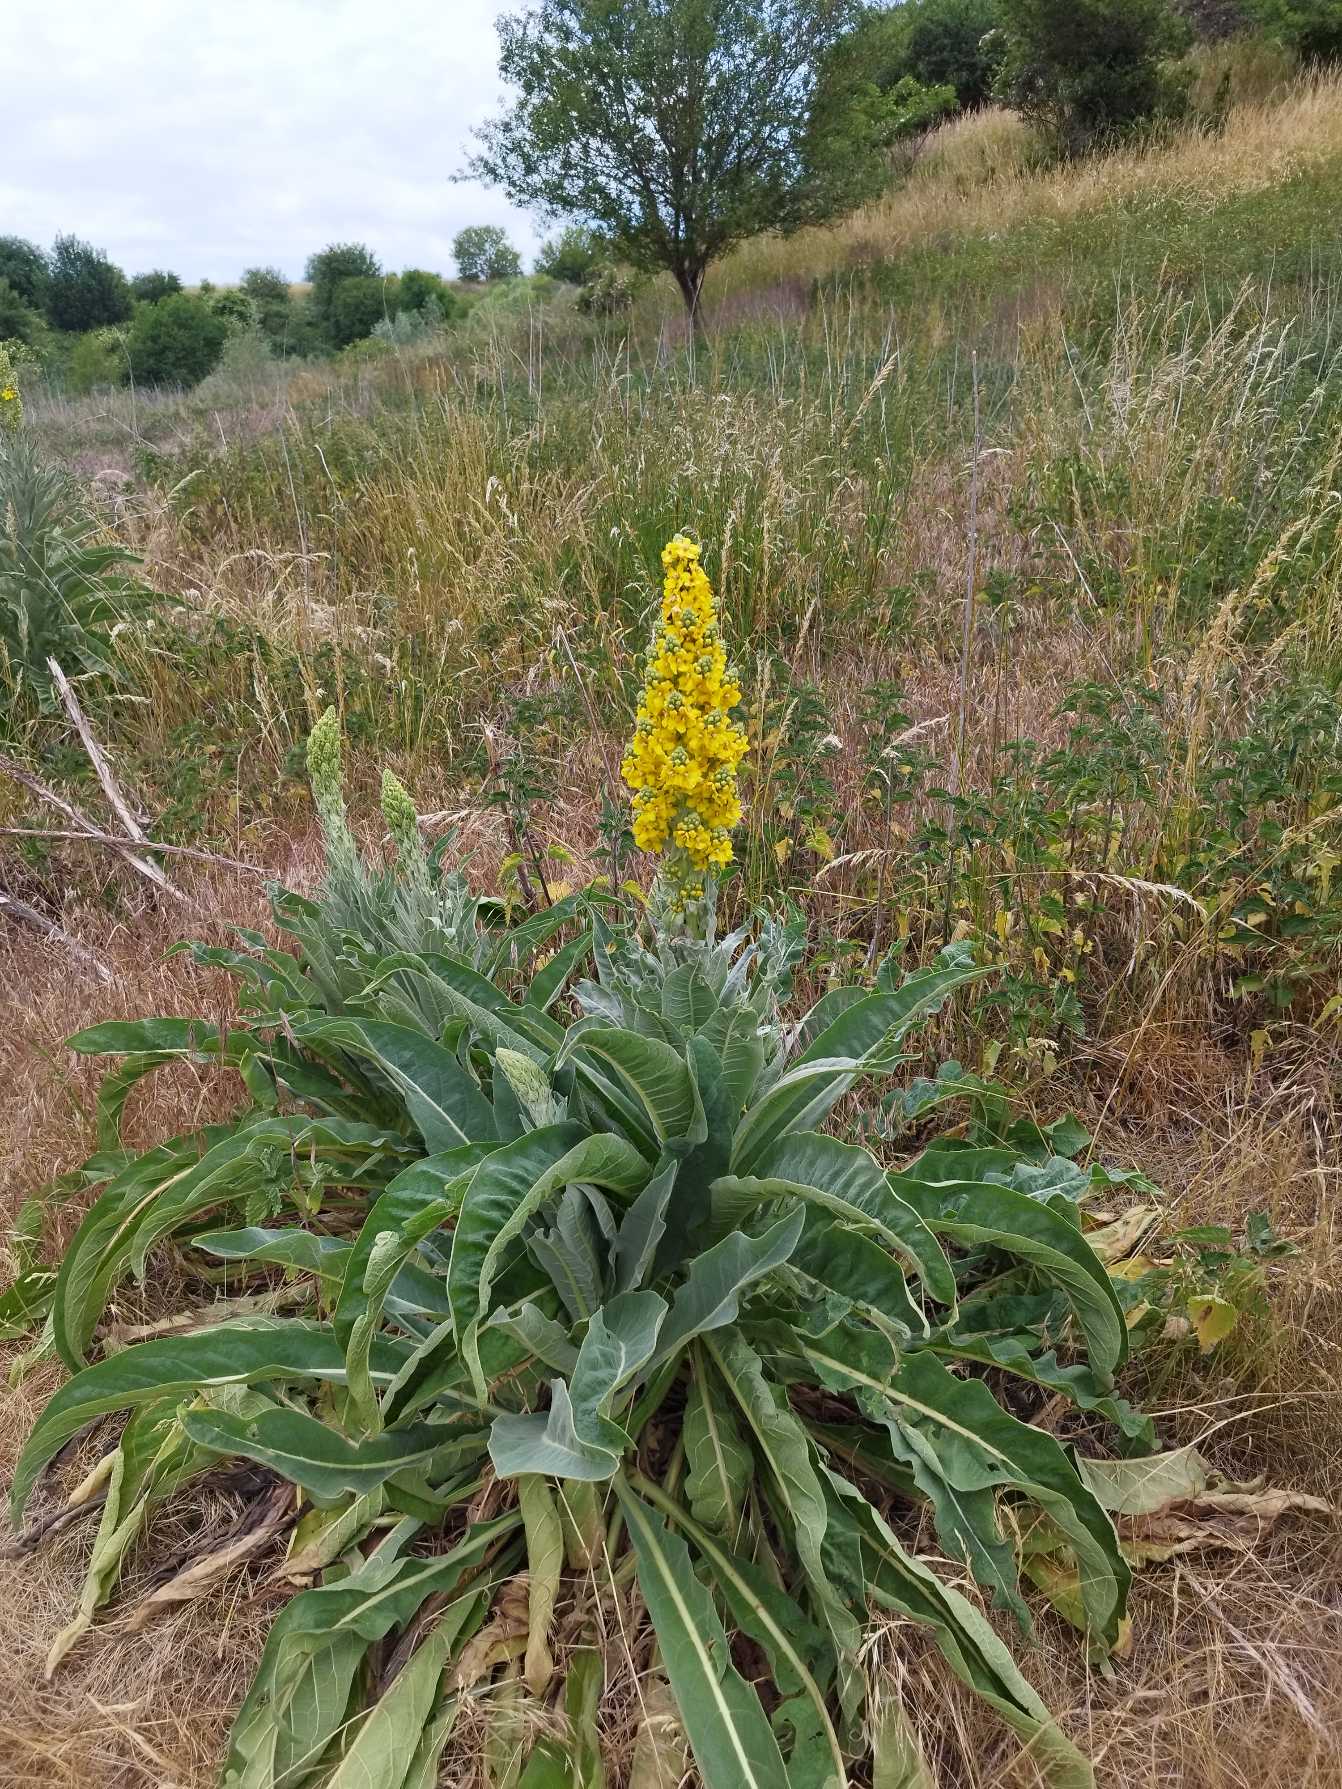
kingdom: Plantae
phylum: Tracheophyta
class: Magnoliopsida
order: Lamiales
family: Scrophulariaceae
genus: Verbascum
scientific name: Verbascum speciosum
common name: Kandelaber-kongelys
